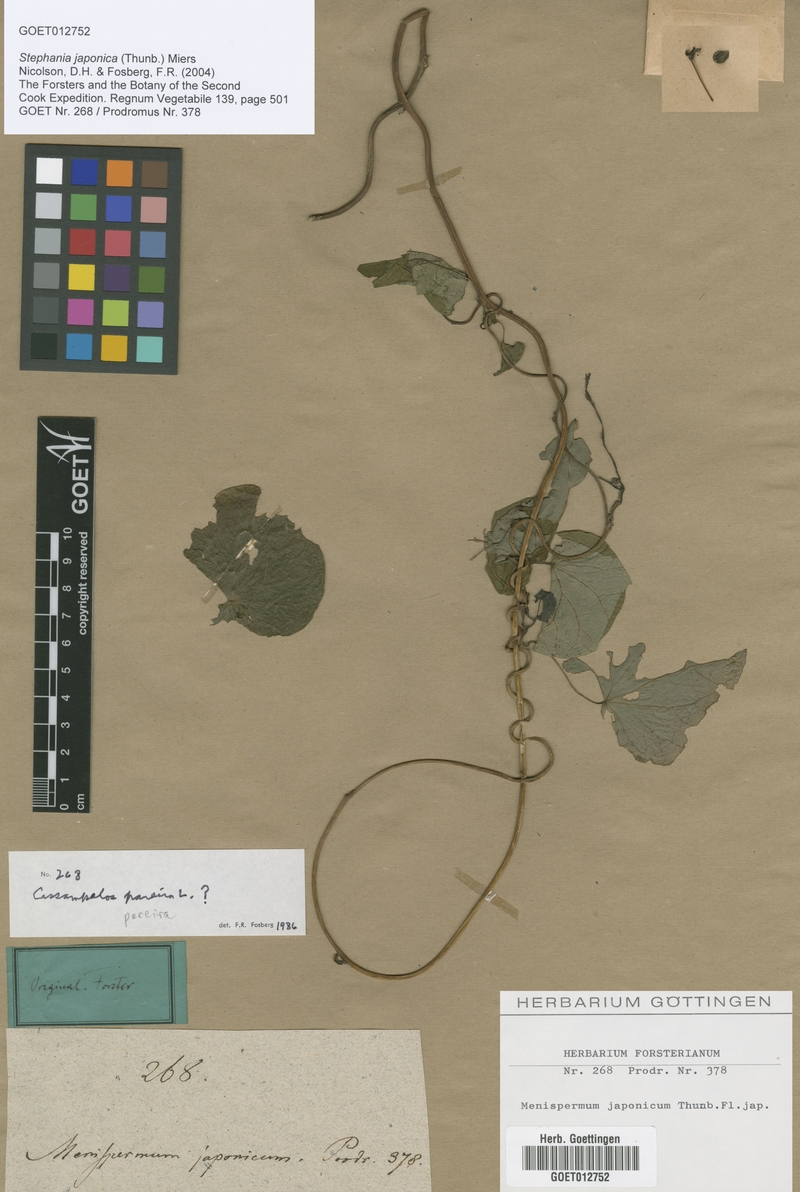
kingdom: Plantae
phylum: Tracheophyta
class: Magnoliopsida
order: Ranunculales
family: Menispermaceae
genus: Stephania
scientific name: Stephania japonica
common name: Snake vine
